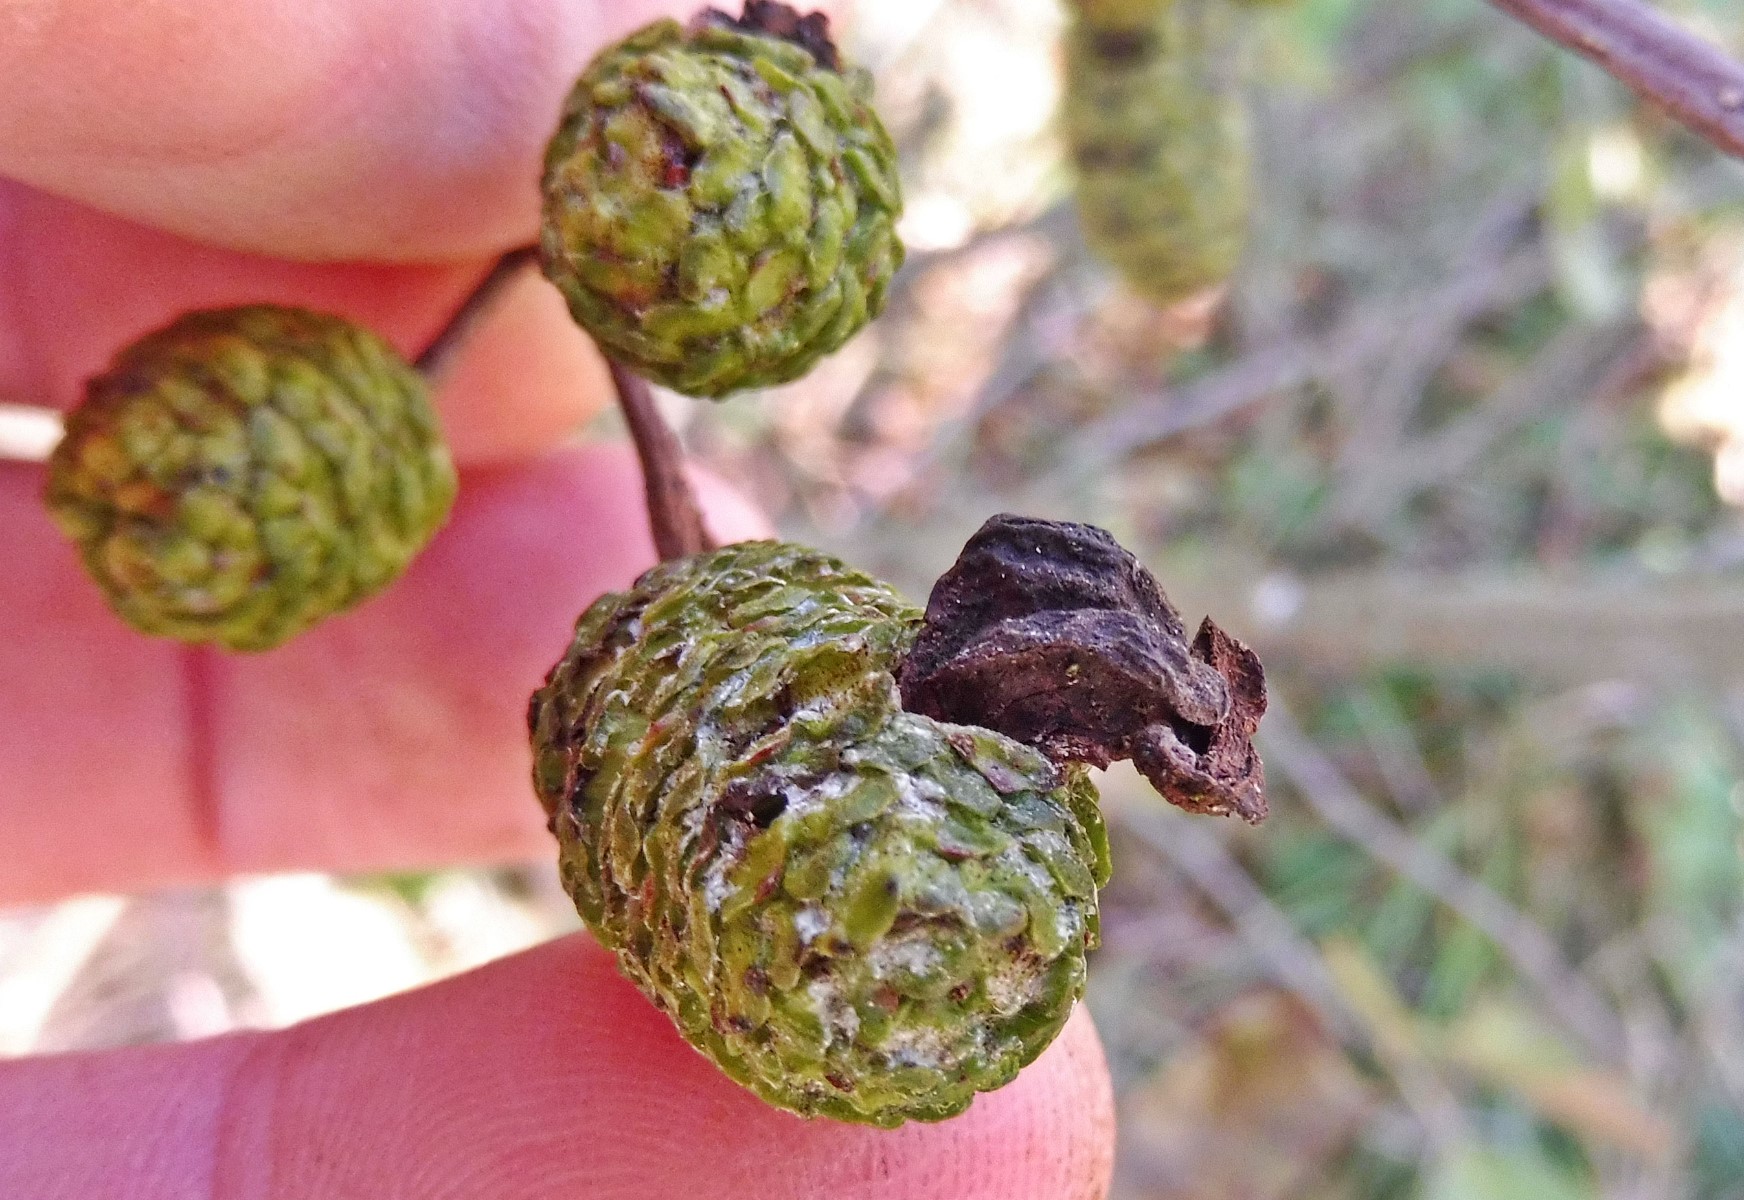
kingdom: Fungi
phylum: Ascomycota
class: Taphrinomycetes
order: Taphrinales
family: Taphrinaceae
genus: Taphrina
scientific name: Taphrina alni
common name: Alder tongue
